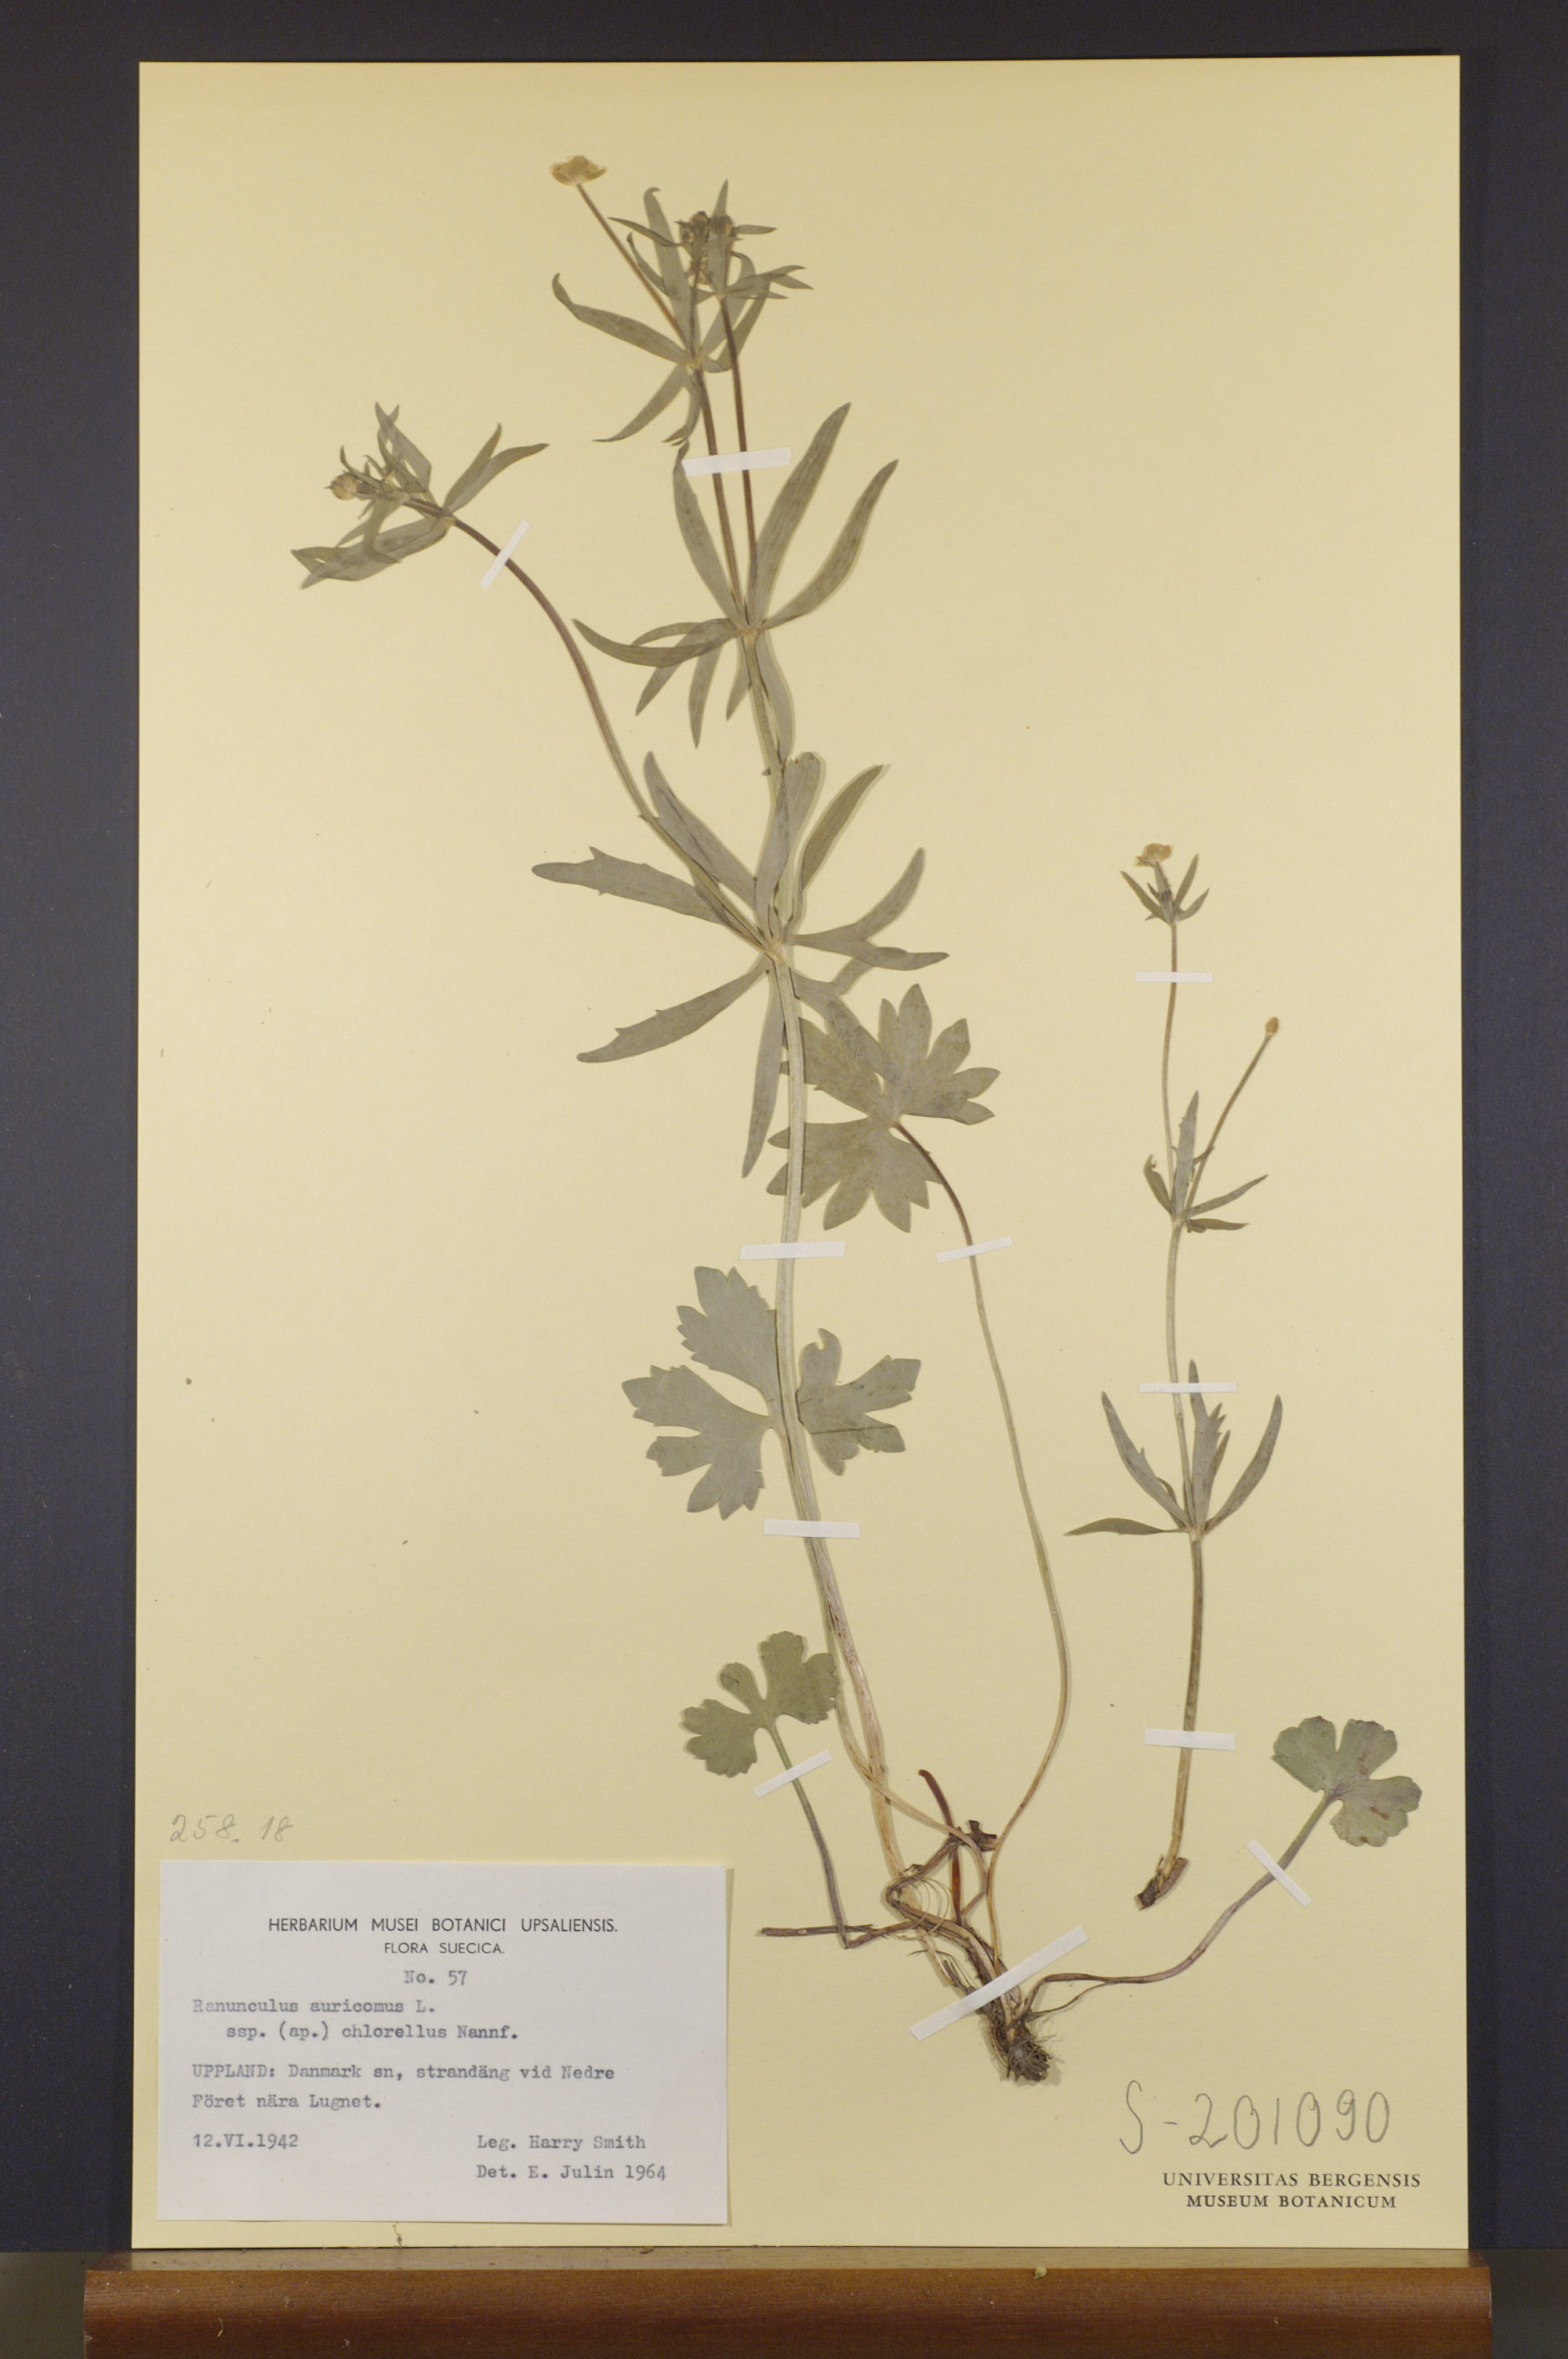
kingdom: Plantae
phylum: Tracheophyta
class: Magnoliopsida
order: Ranunculales
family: Ranunculaceae
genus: Ranunculus
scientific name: Ranunculus chlorellus
